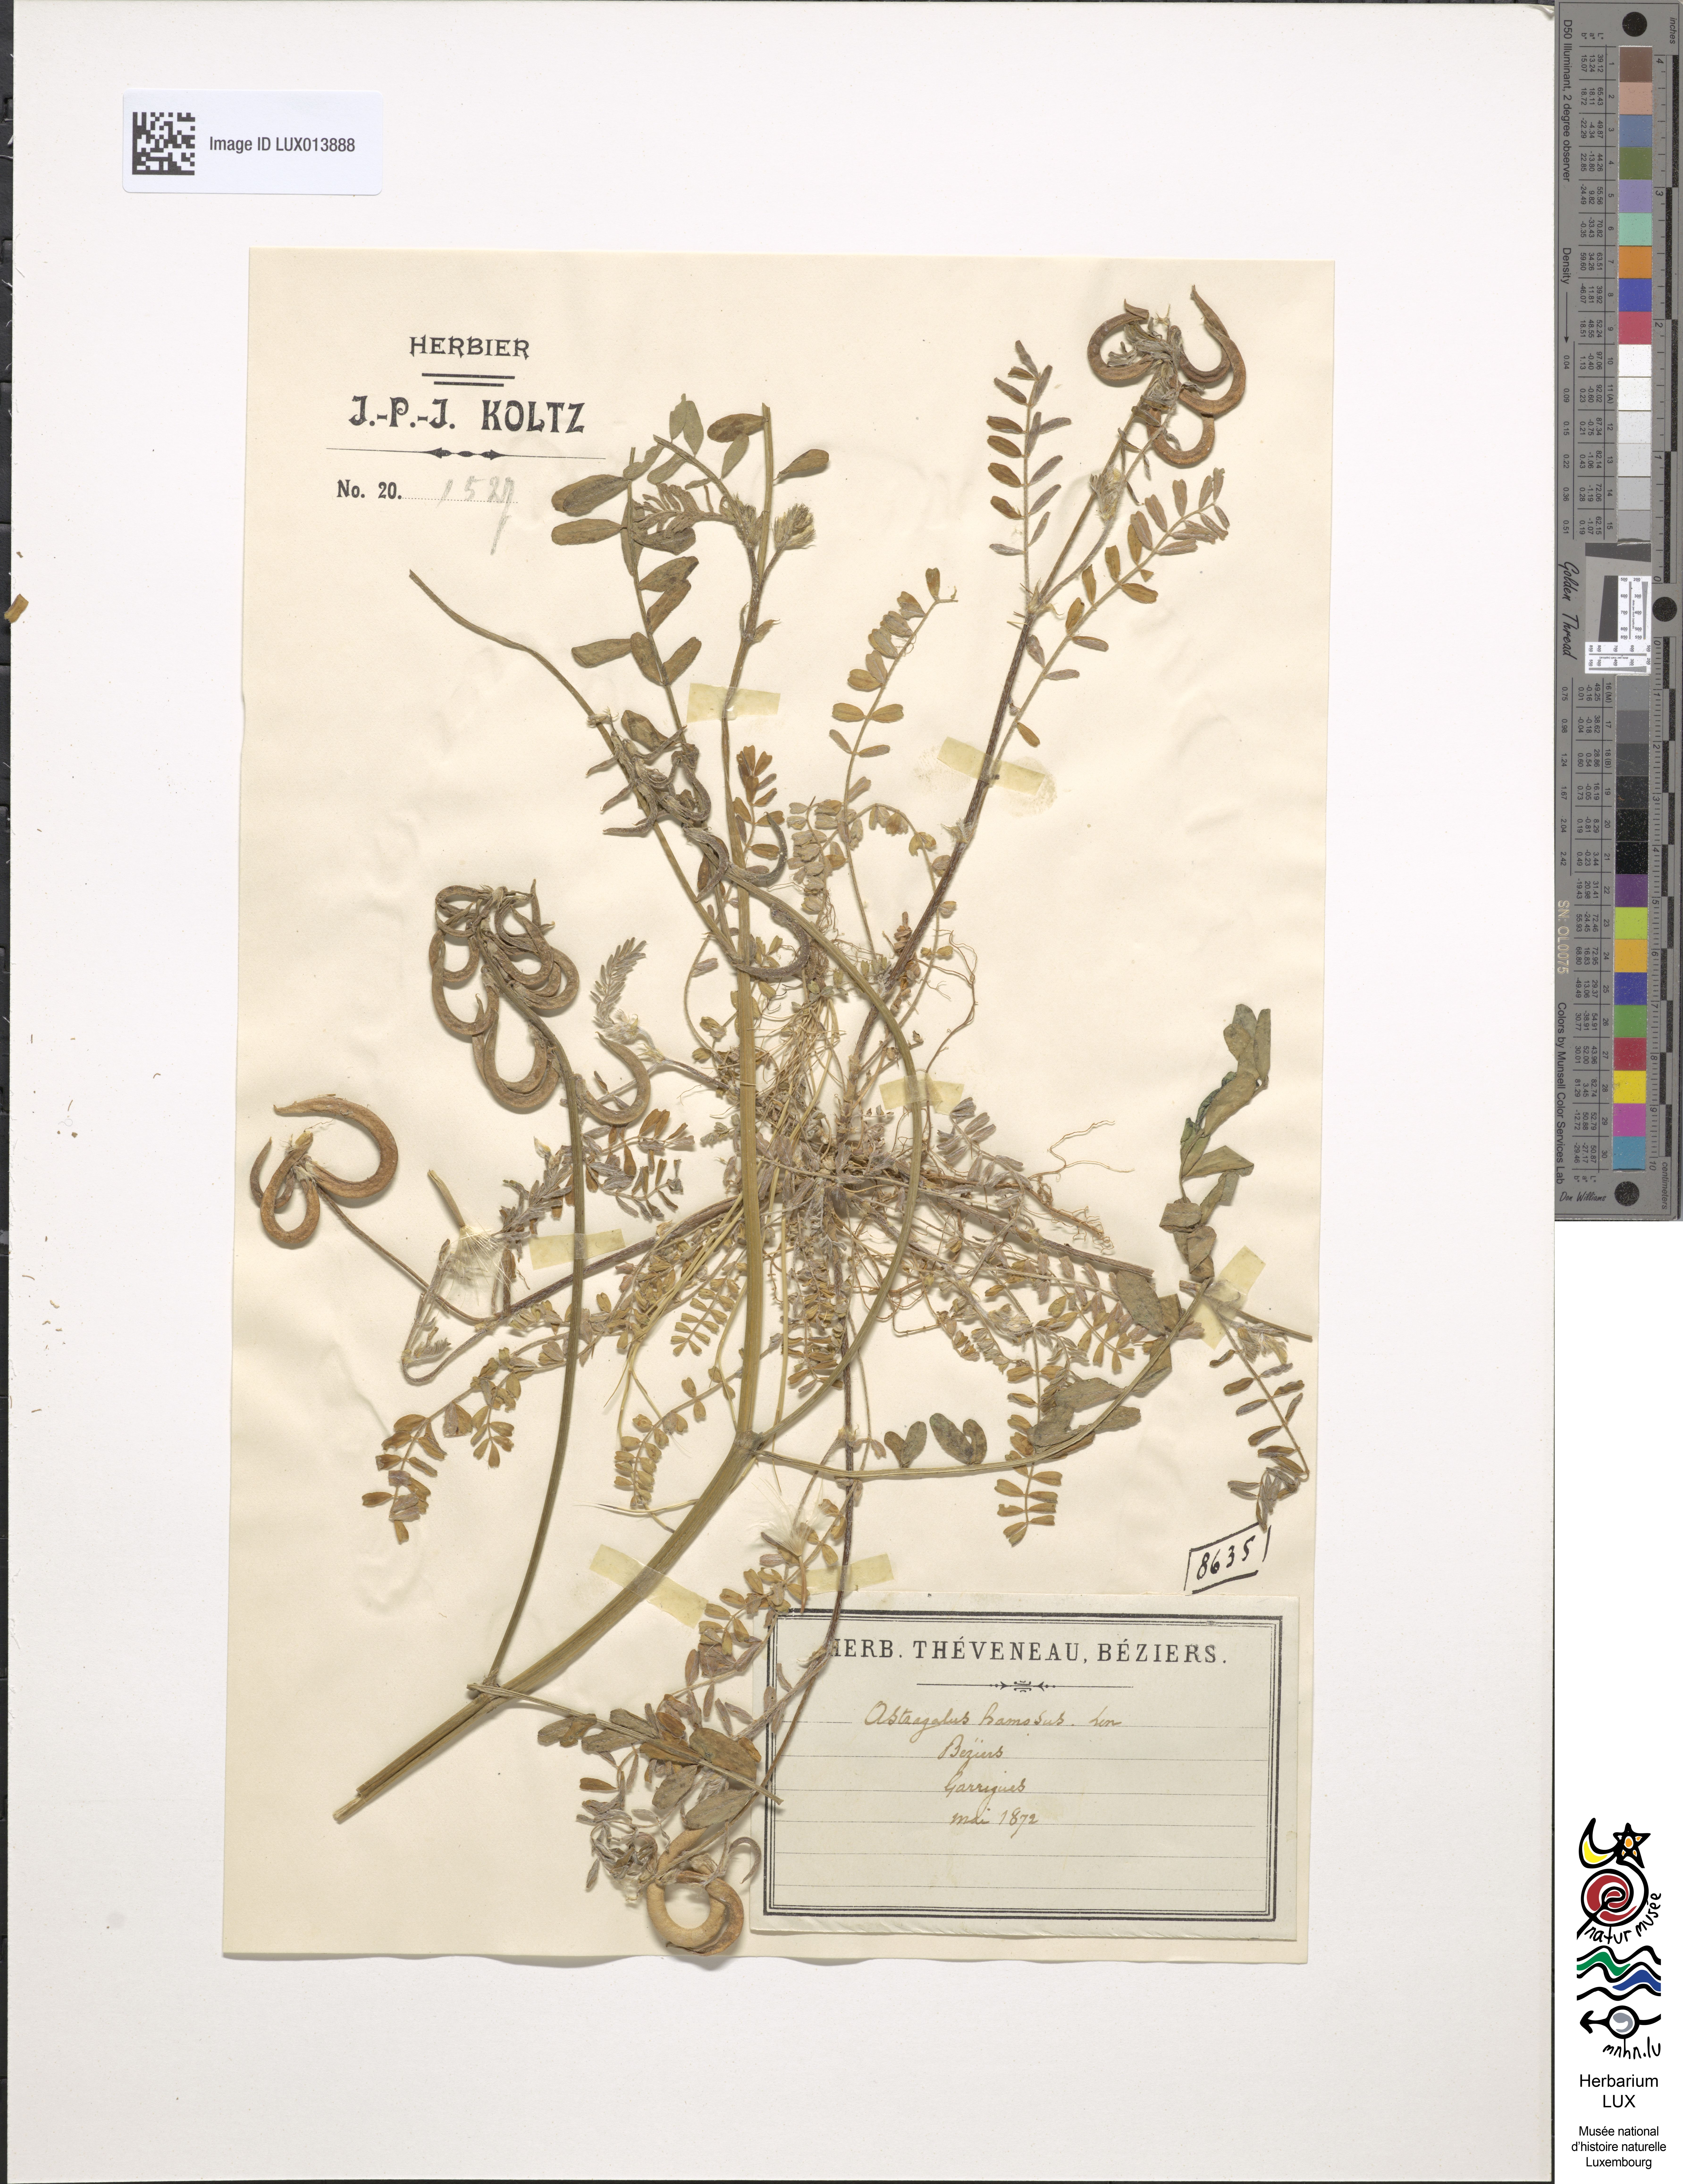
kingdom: Plantae
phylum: Tracheophyta
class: Magnoliopsida
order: Fabales
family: Fabaceae
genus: Astragalus
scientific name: Astragalus hamosus
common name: European milkvetch
